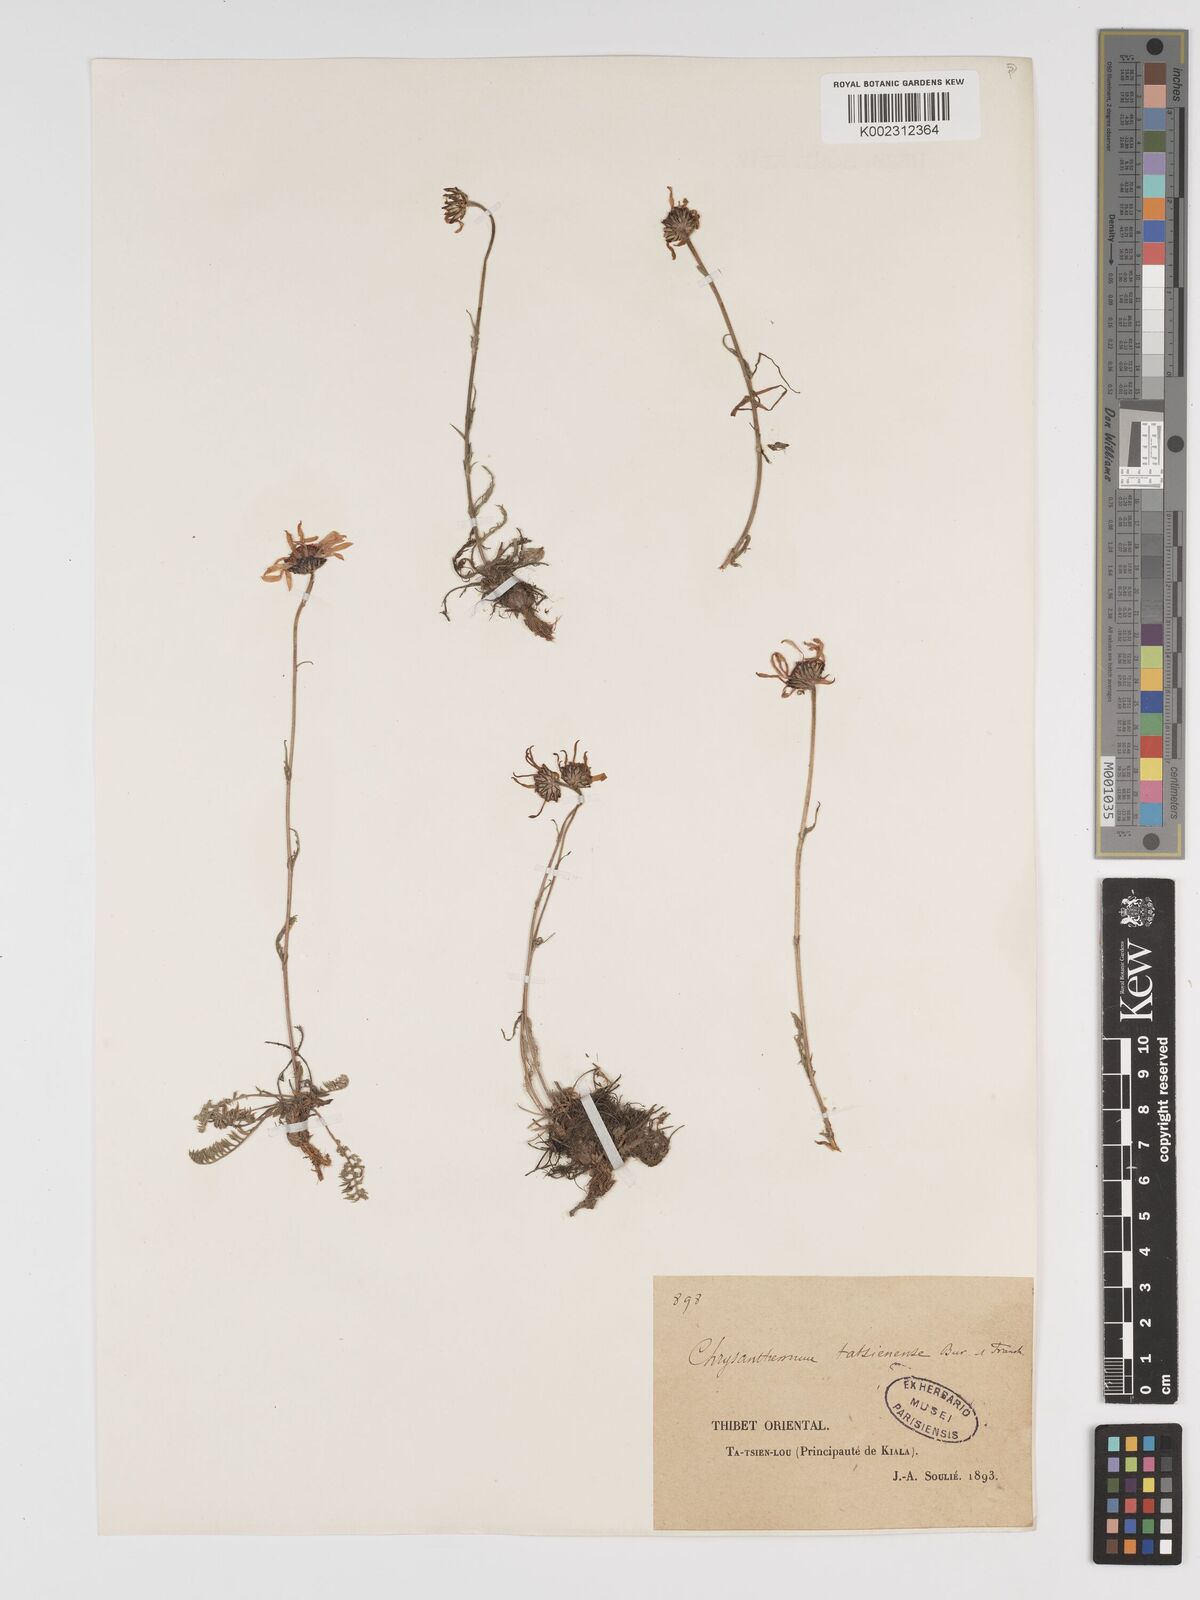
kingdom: Plantae
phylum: Tracheophyta
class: Magnoliopsida
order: Asterales
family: Asteraceae
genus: Tanacetum
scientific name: Tanacetum tatsienense
